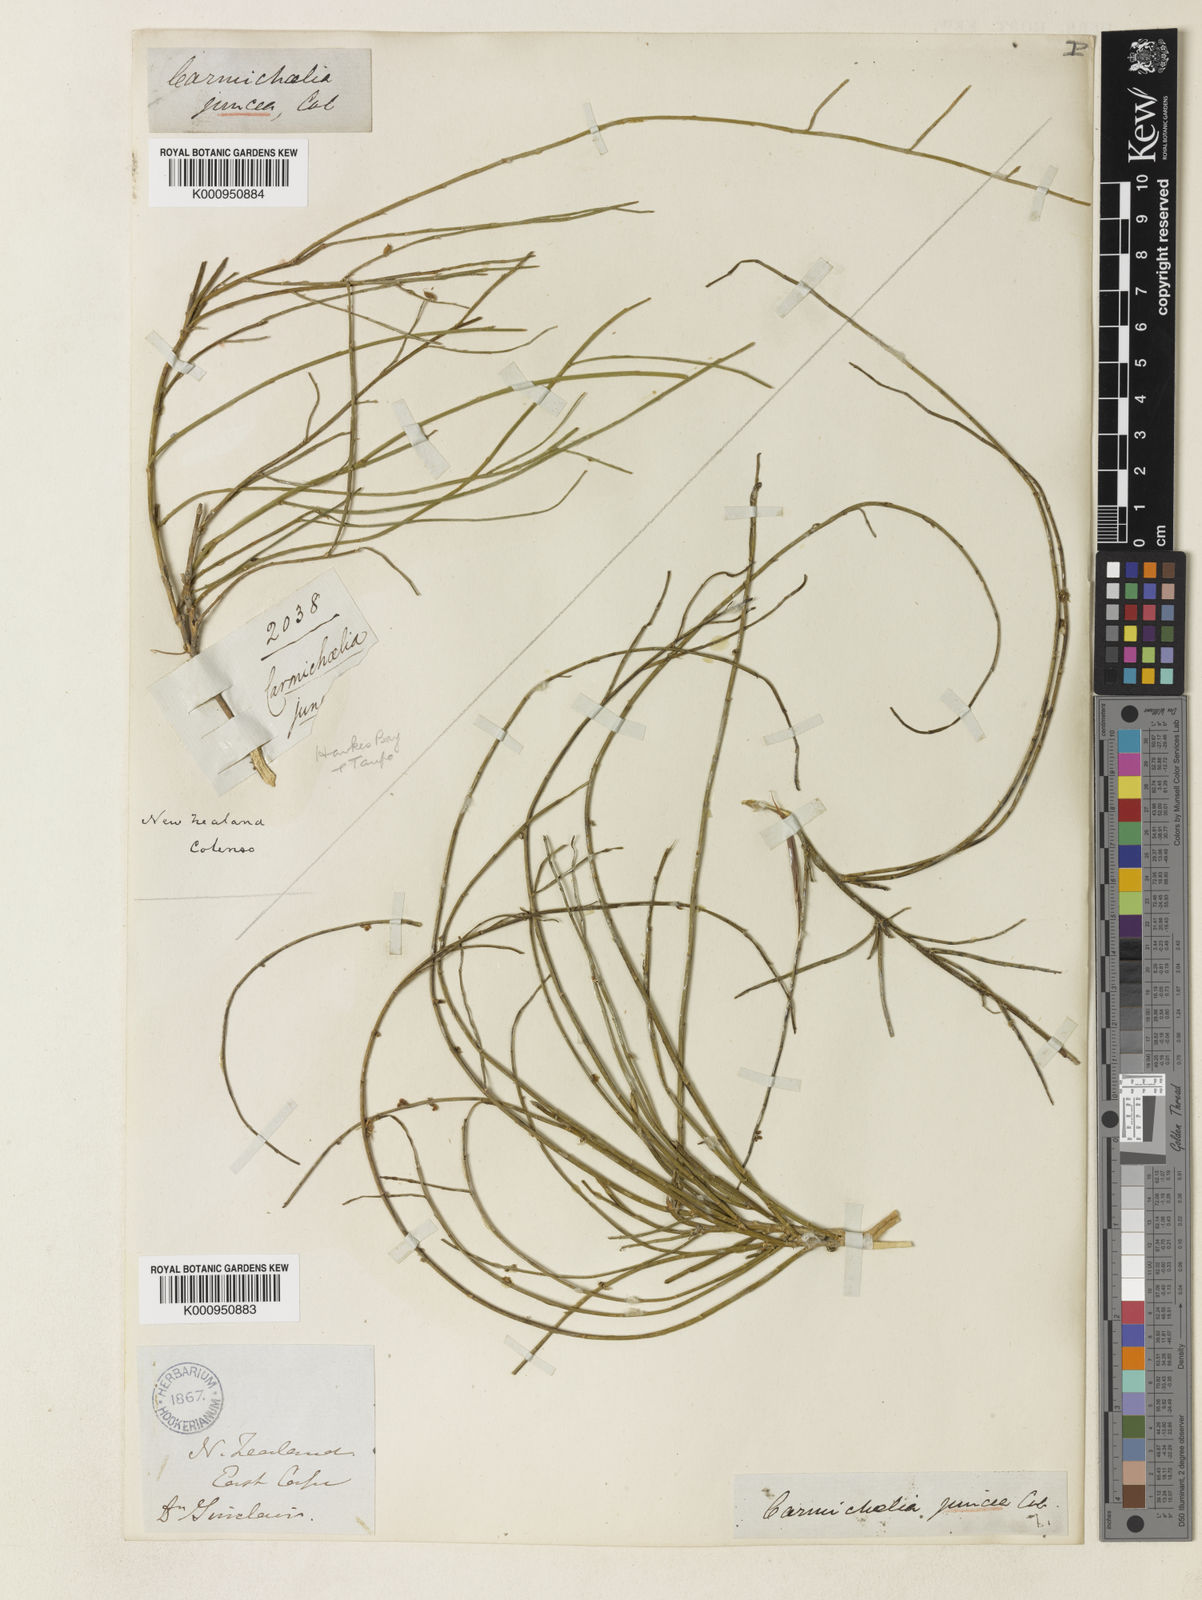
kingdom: Plantae
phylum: Tracheophyta
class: Magnoliopsida
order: Fabales
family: Fabaceae
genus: Carmichaelia
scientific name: Carmichaelia juncea
